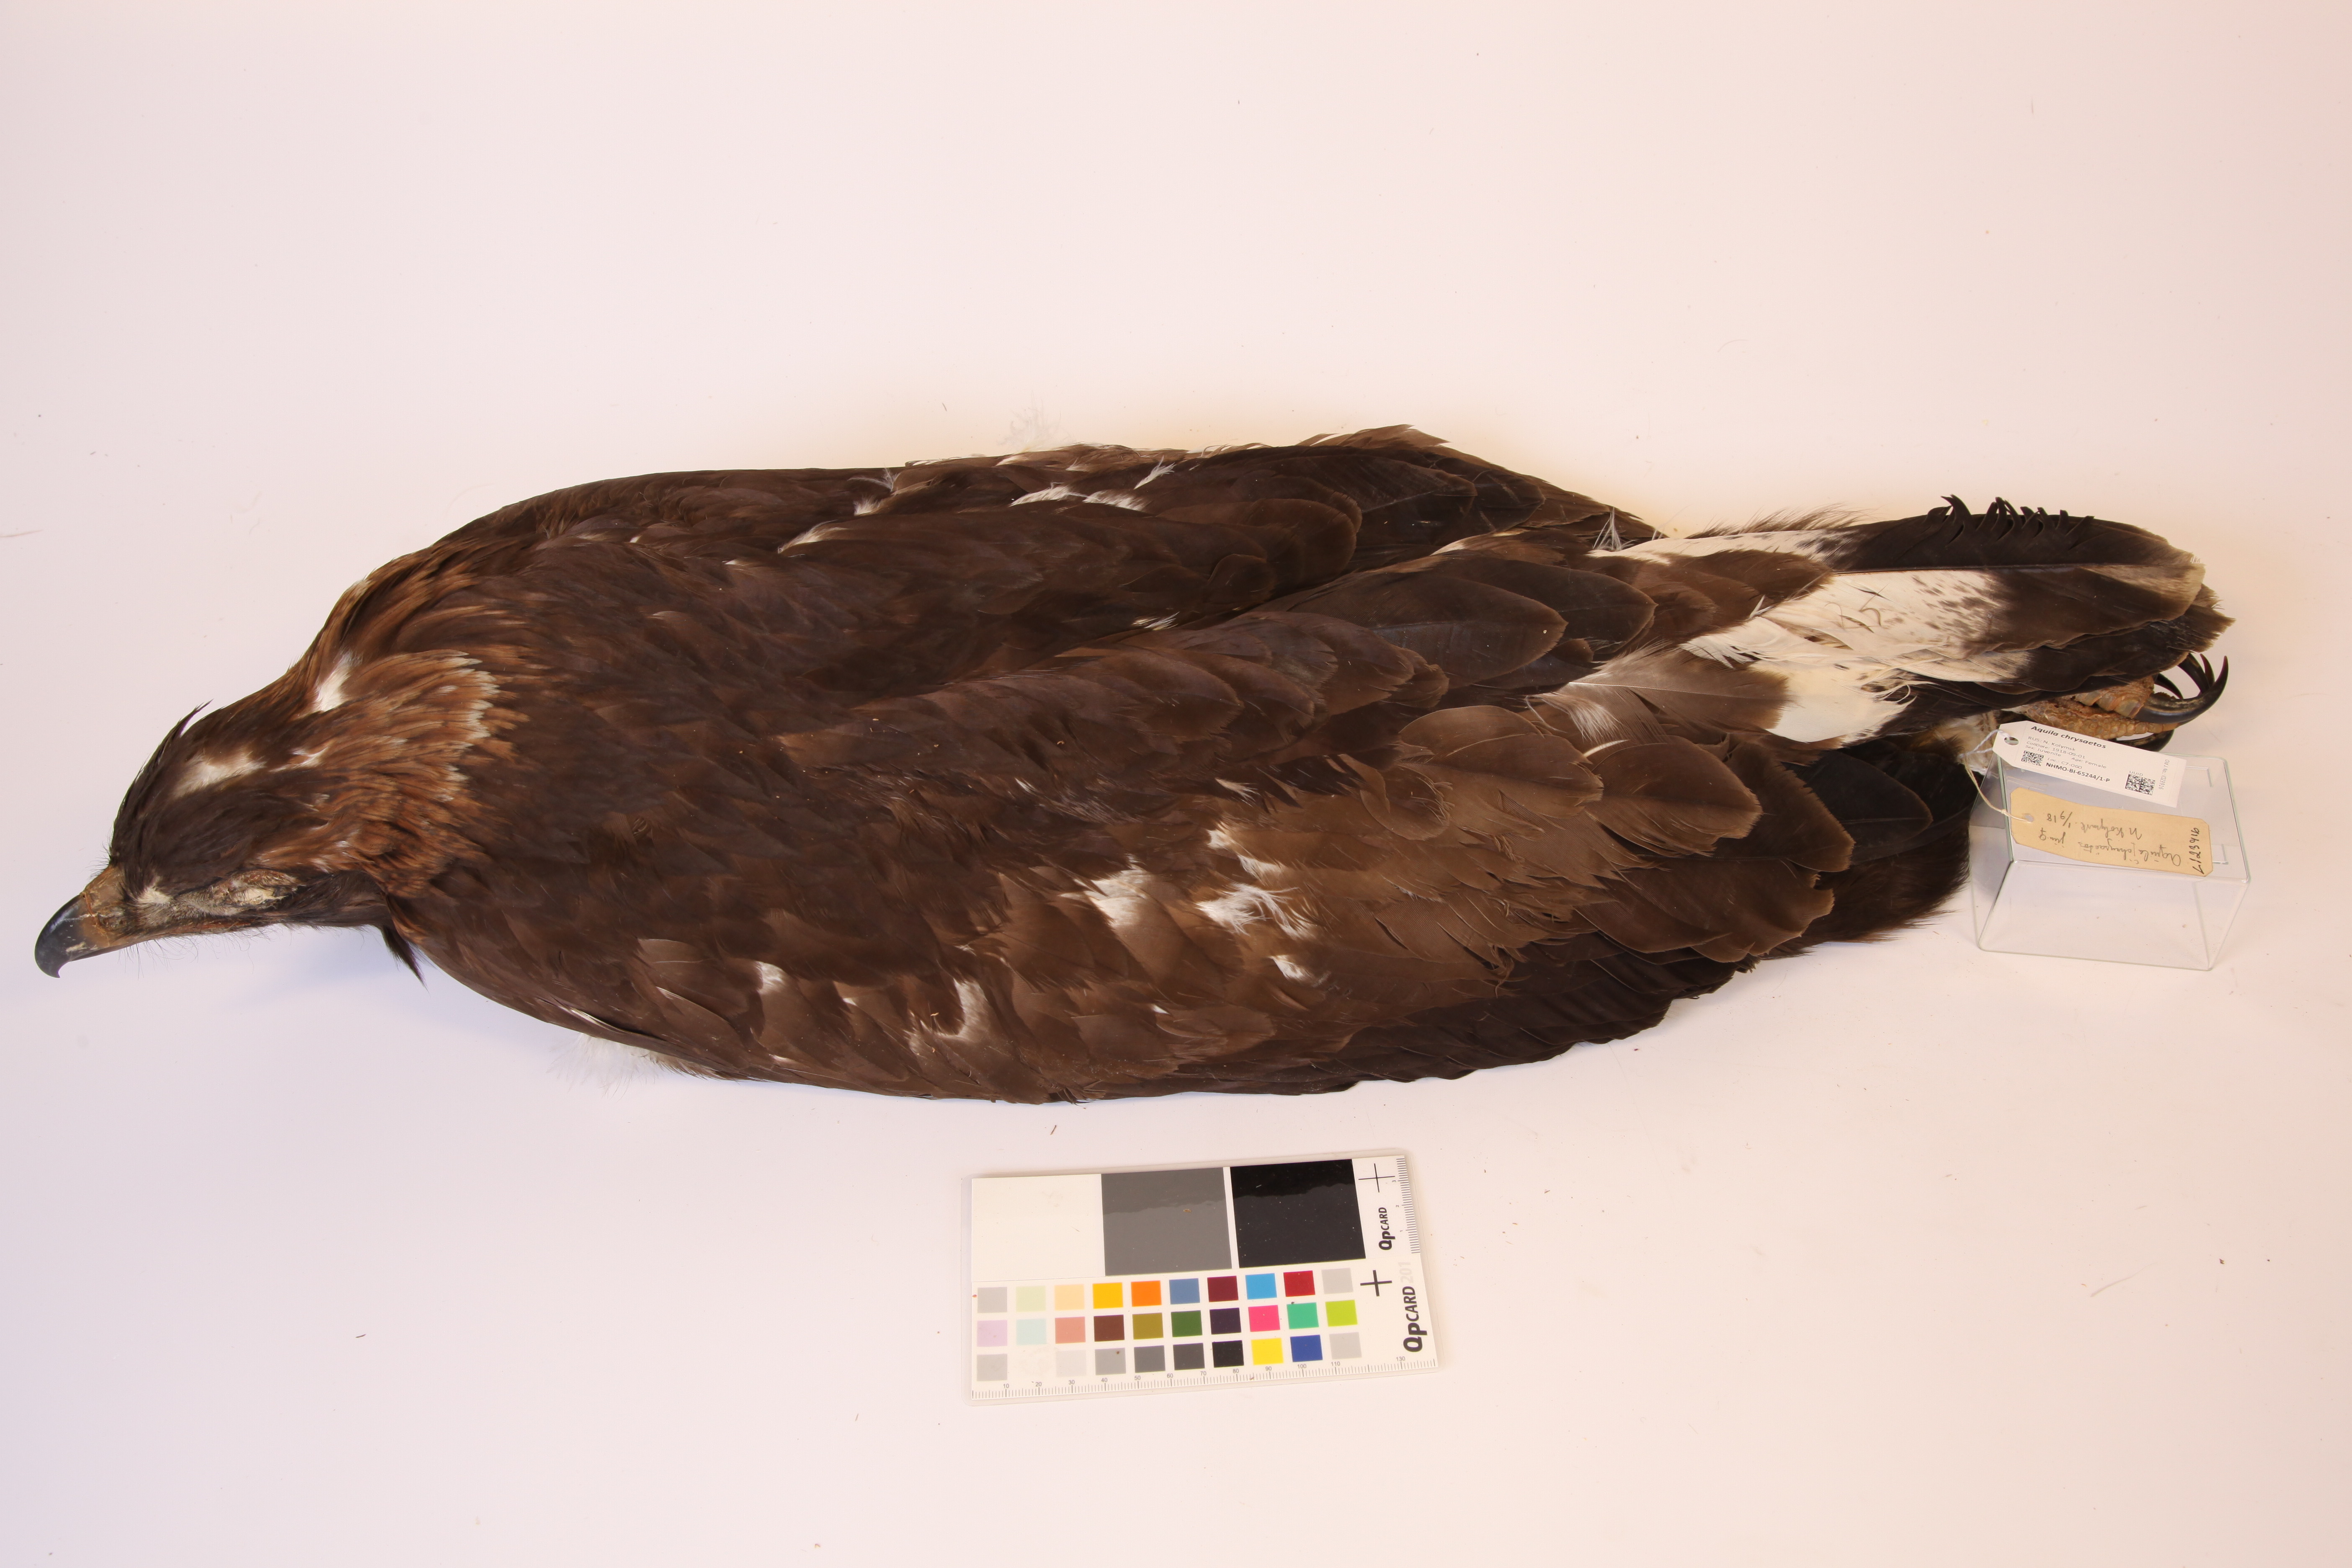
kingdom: Animalia
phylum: Chordata
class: Aves
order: Accipitriformes
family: Accipitridae
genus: Aquila
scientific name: Aquila chrysaetos
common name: Golden eagle
